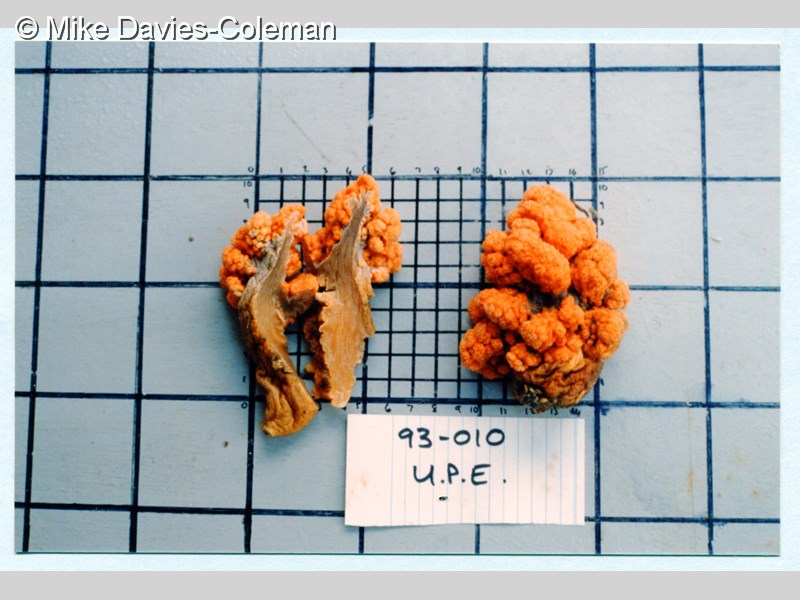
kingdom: Animalia
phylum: Cnidaria
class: Anthozoa
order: Malacalcyonacea
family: Capnellidae
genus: Eunephthya
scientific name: Eunephthya thyrsoidea
